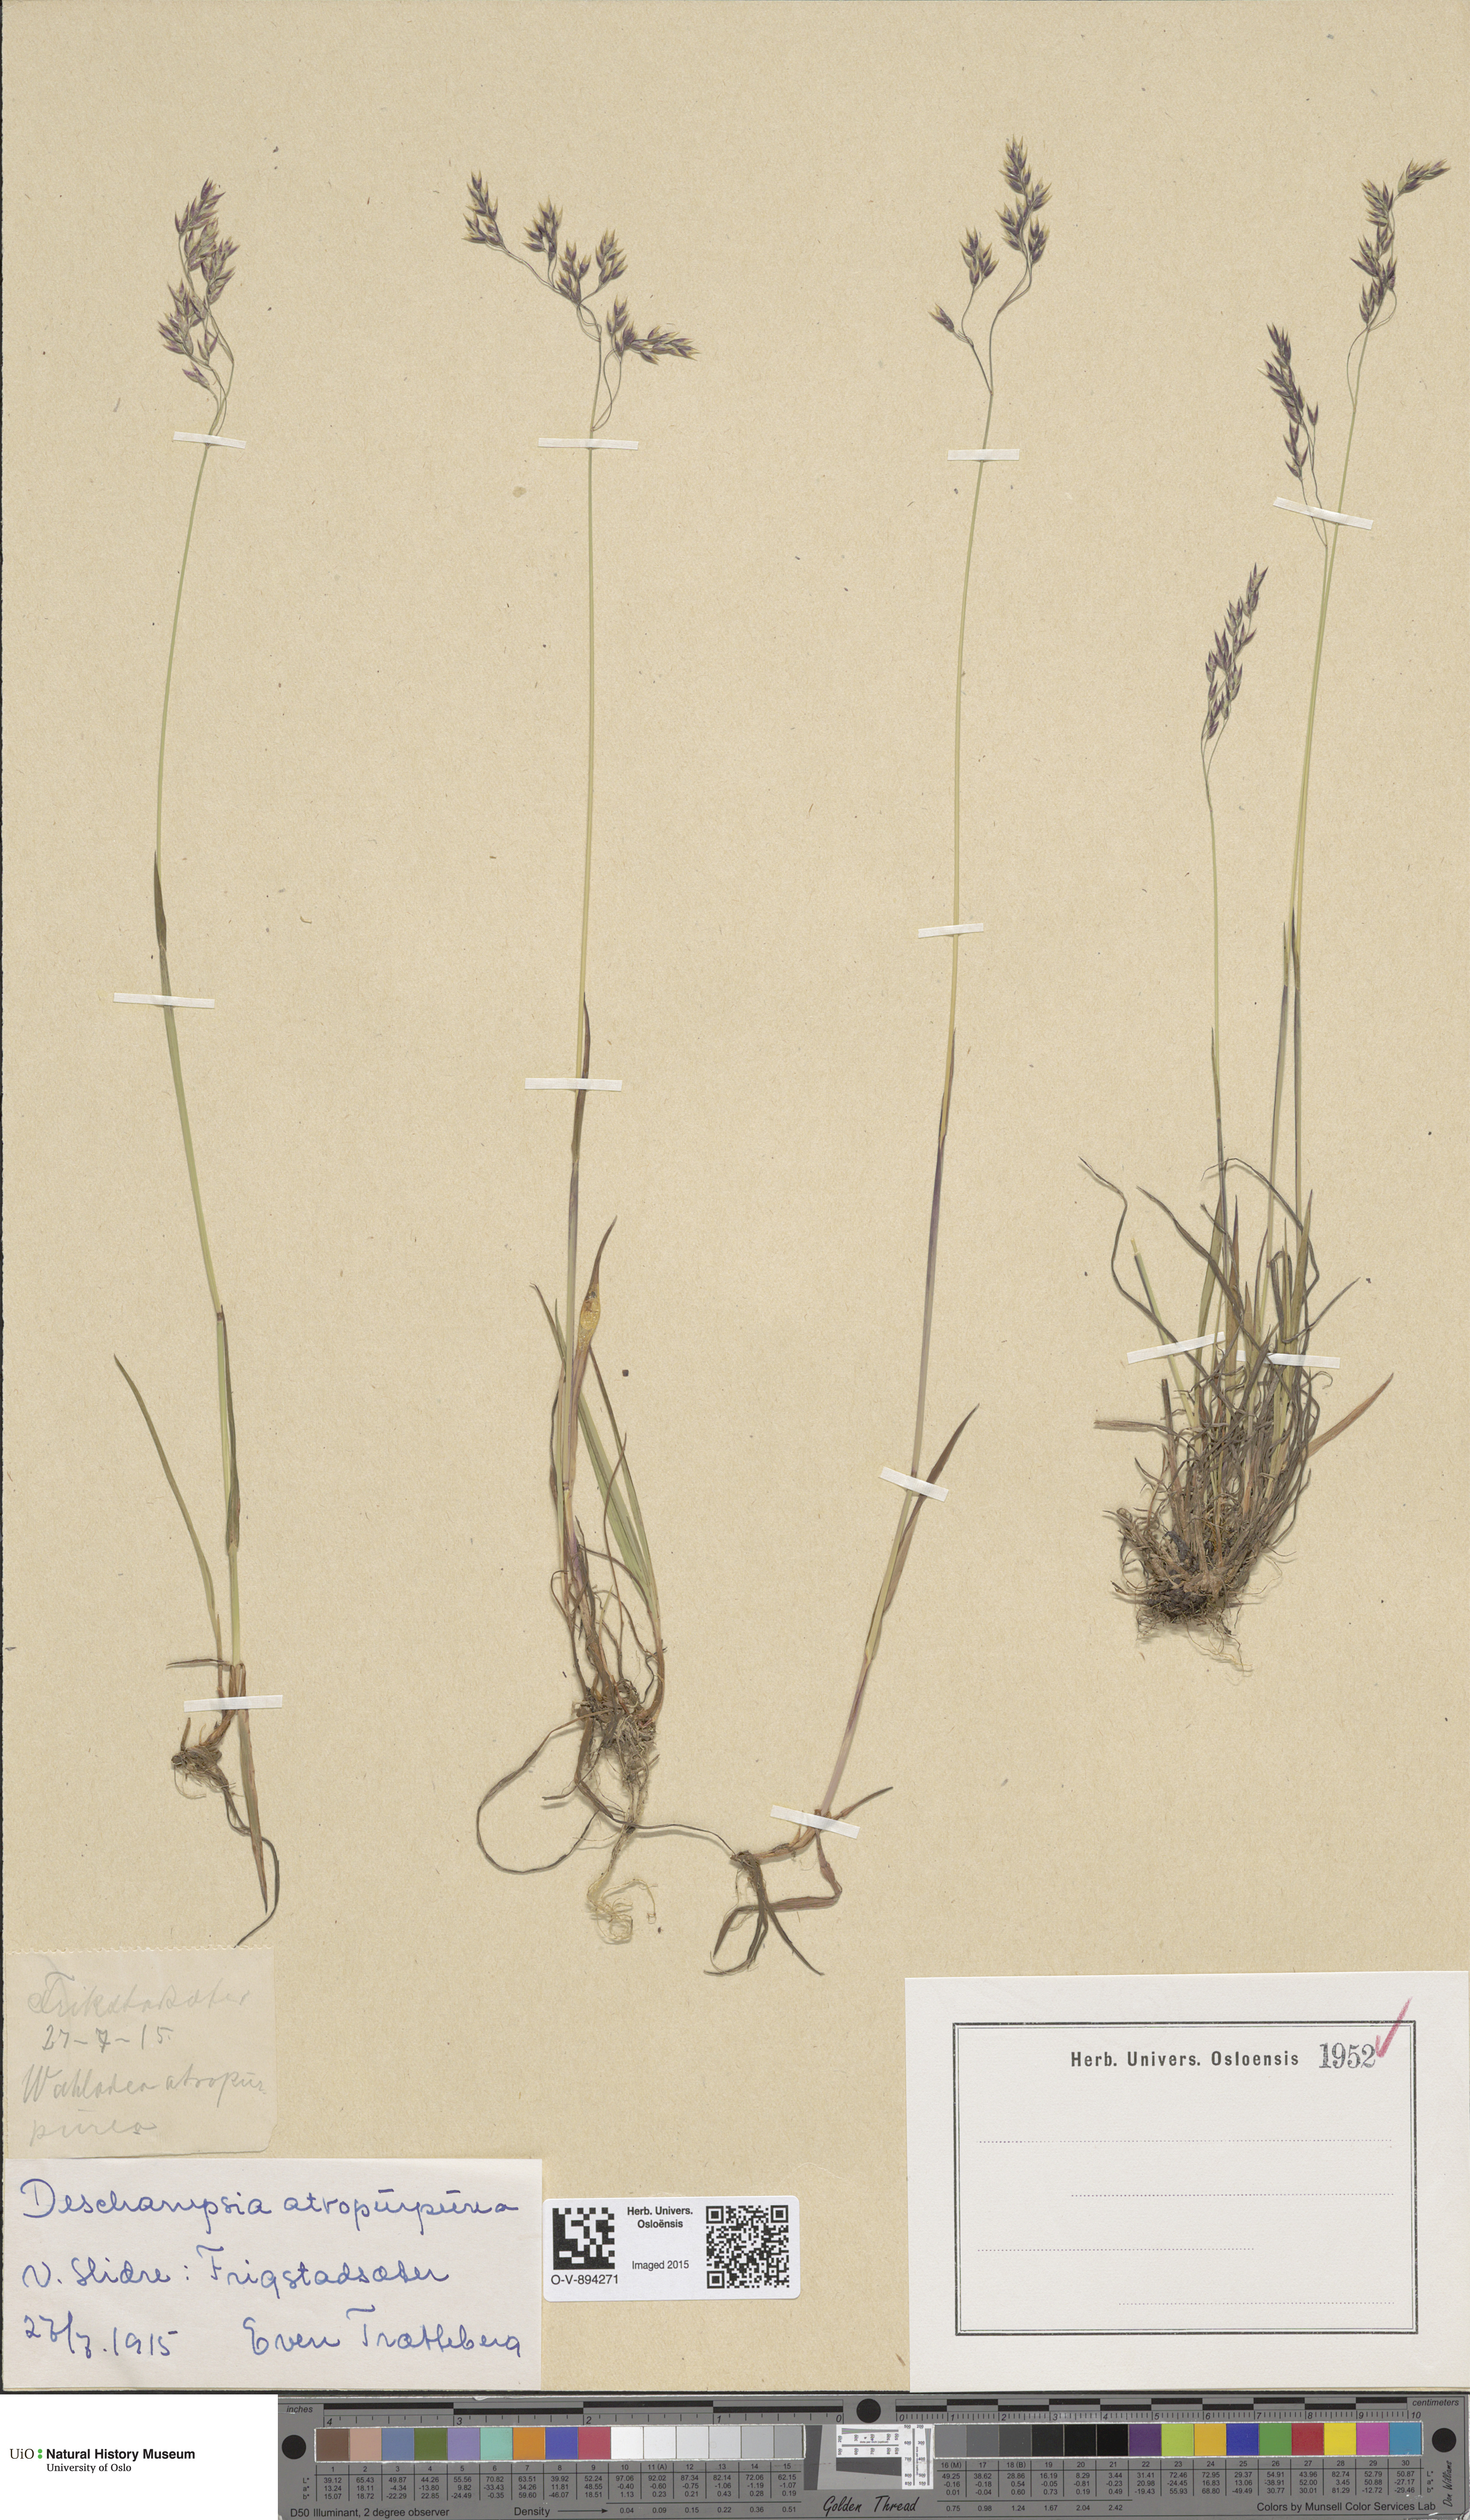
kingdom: Plantae
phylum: Tracheophyta
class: Liliopsida
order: Poales
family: Poaceae
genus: Vahlodea
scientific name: Vahlodea atropurpurea
